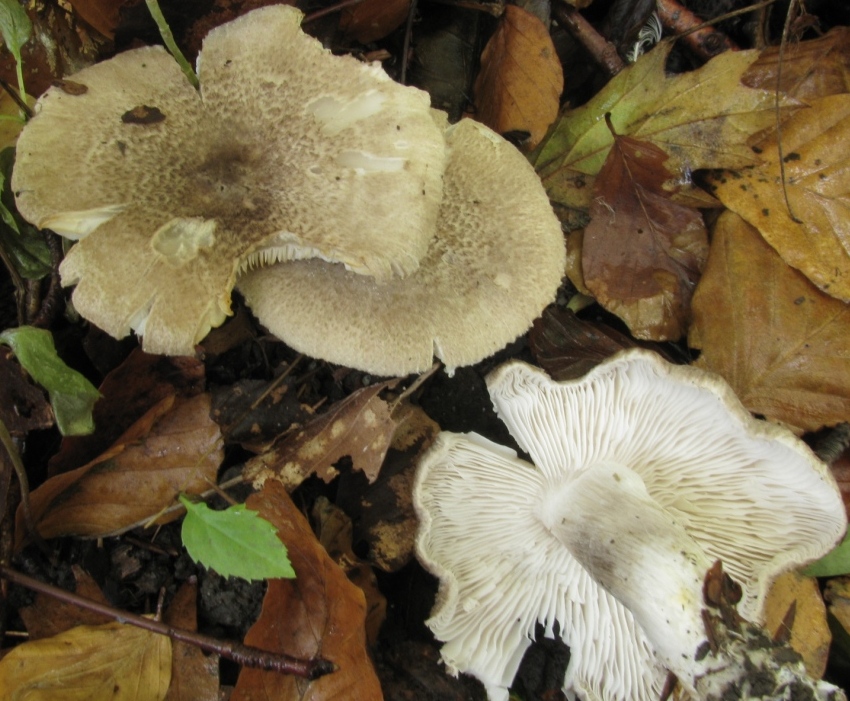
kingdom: Fungi
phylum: Basidiomycota
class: Agaricomycetes
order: Agaricales
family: Tricholomataceae
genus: Tricholoma
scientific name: Tricholoma scalpturatum
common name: gulplettet ridderhat
